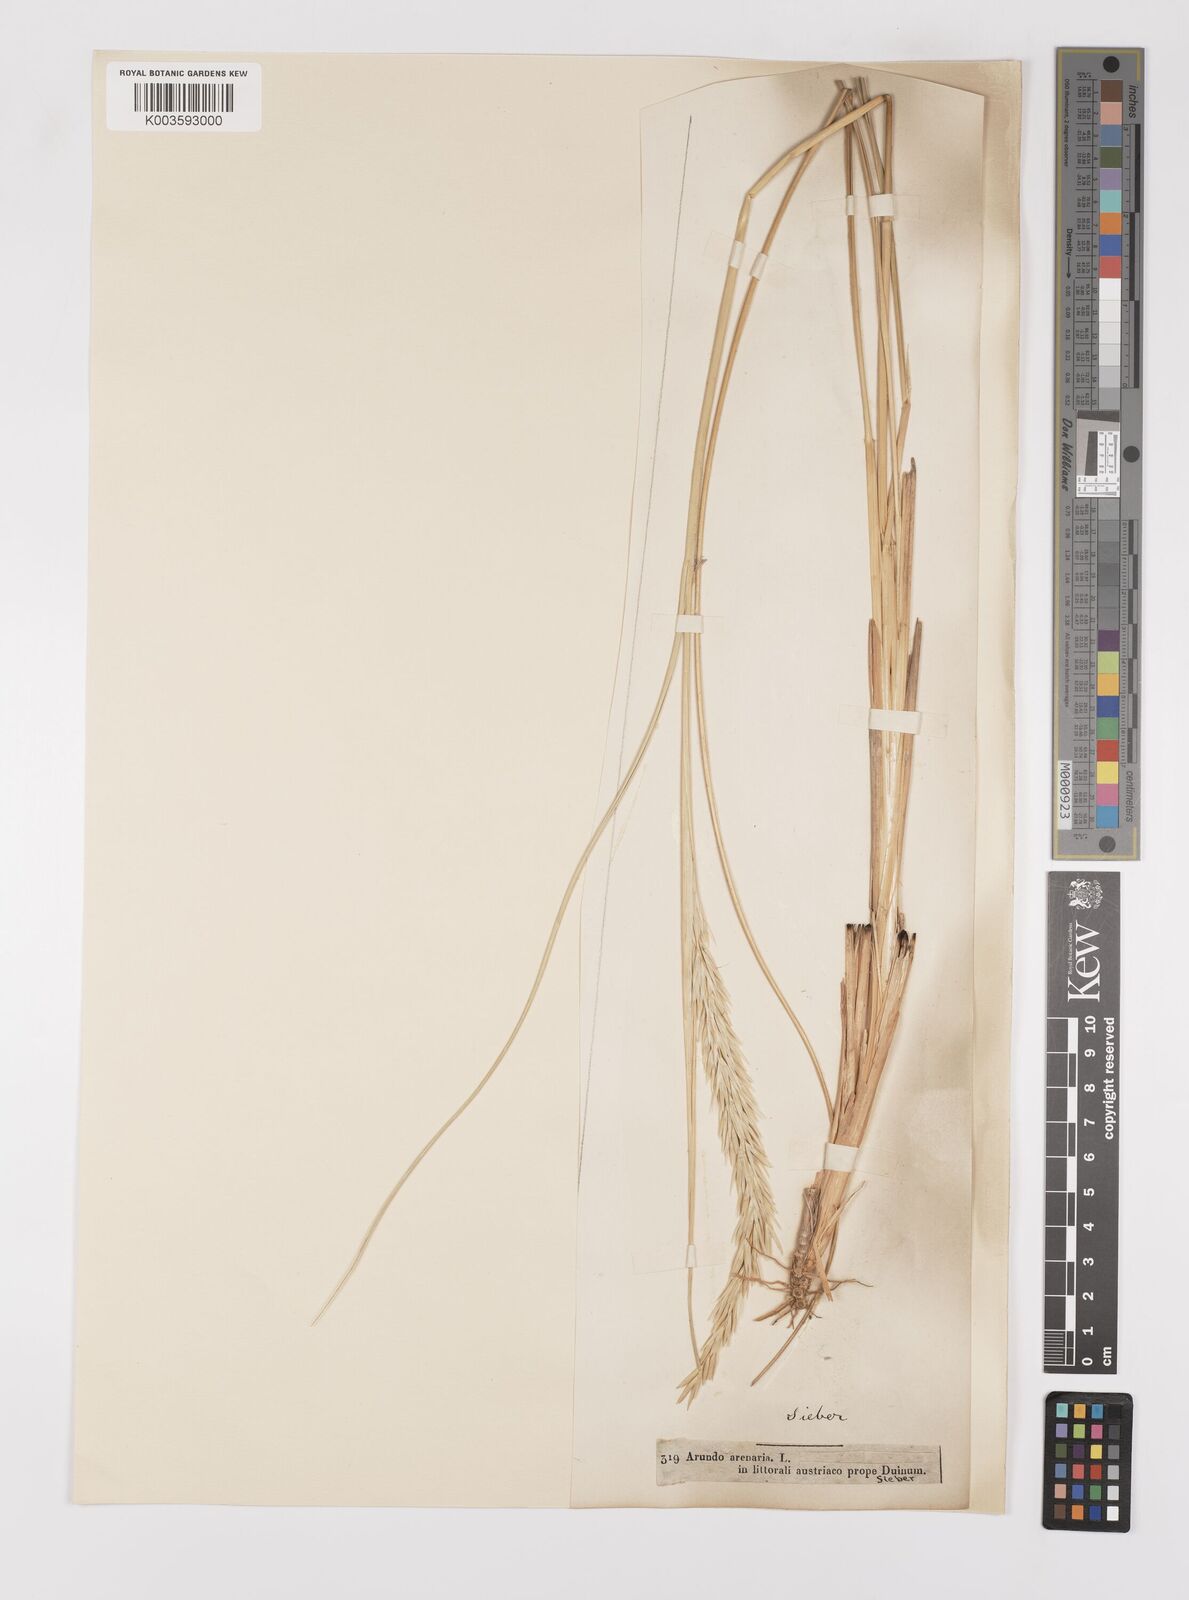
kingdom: Plantae
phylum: Tracheophyta
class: Liliopsida
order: Poales
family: Poaceae
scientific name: Poaceae
